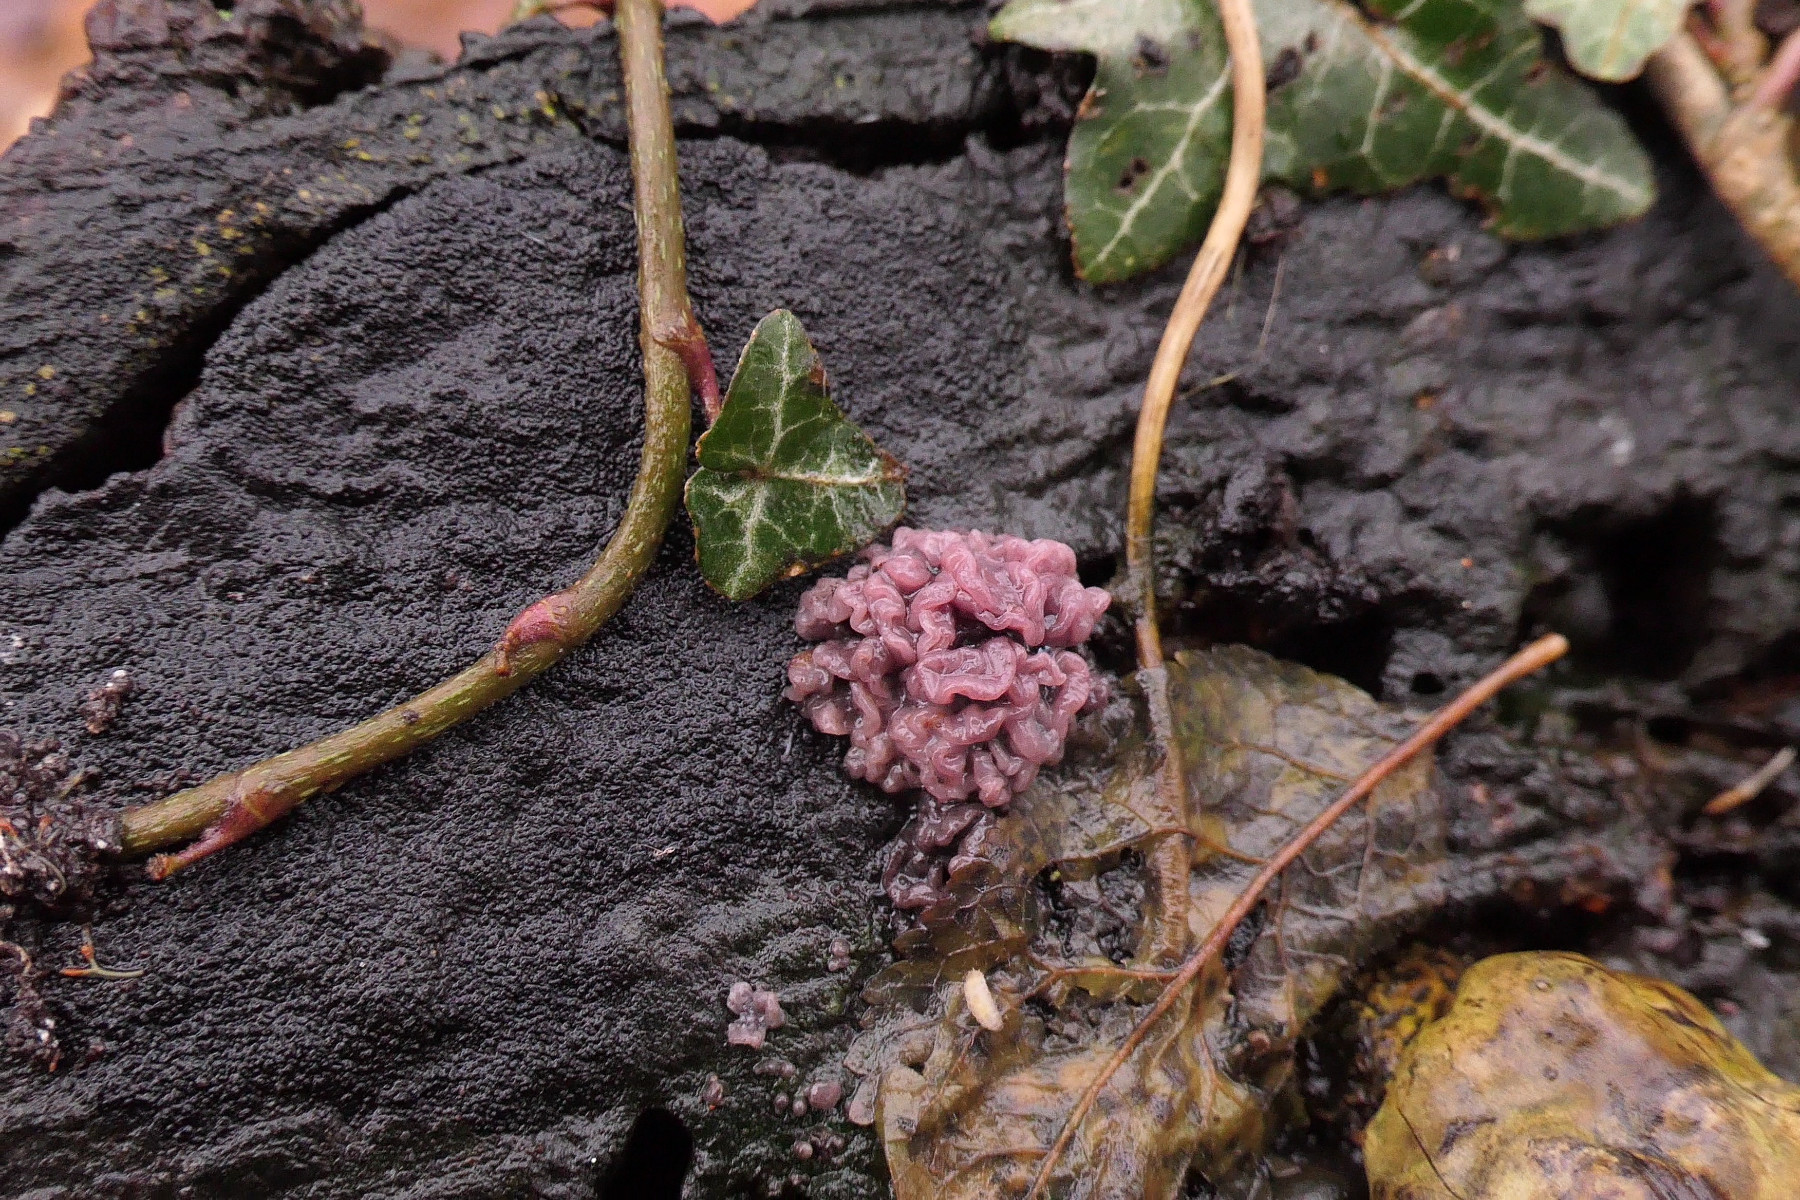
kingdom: Fungi
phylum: Ascomycota
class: Leotiomycetes
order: Helotiales
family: Gelatinodiscaceae
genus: Ascocoryne
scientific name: Ascocoryne sarcoides
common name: rødlilla sejskive
